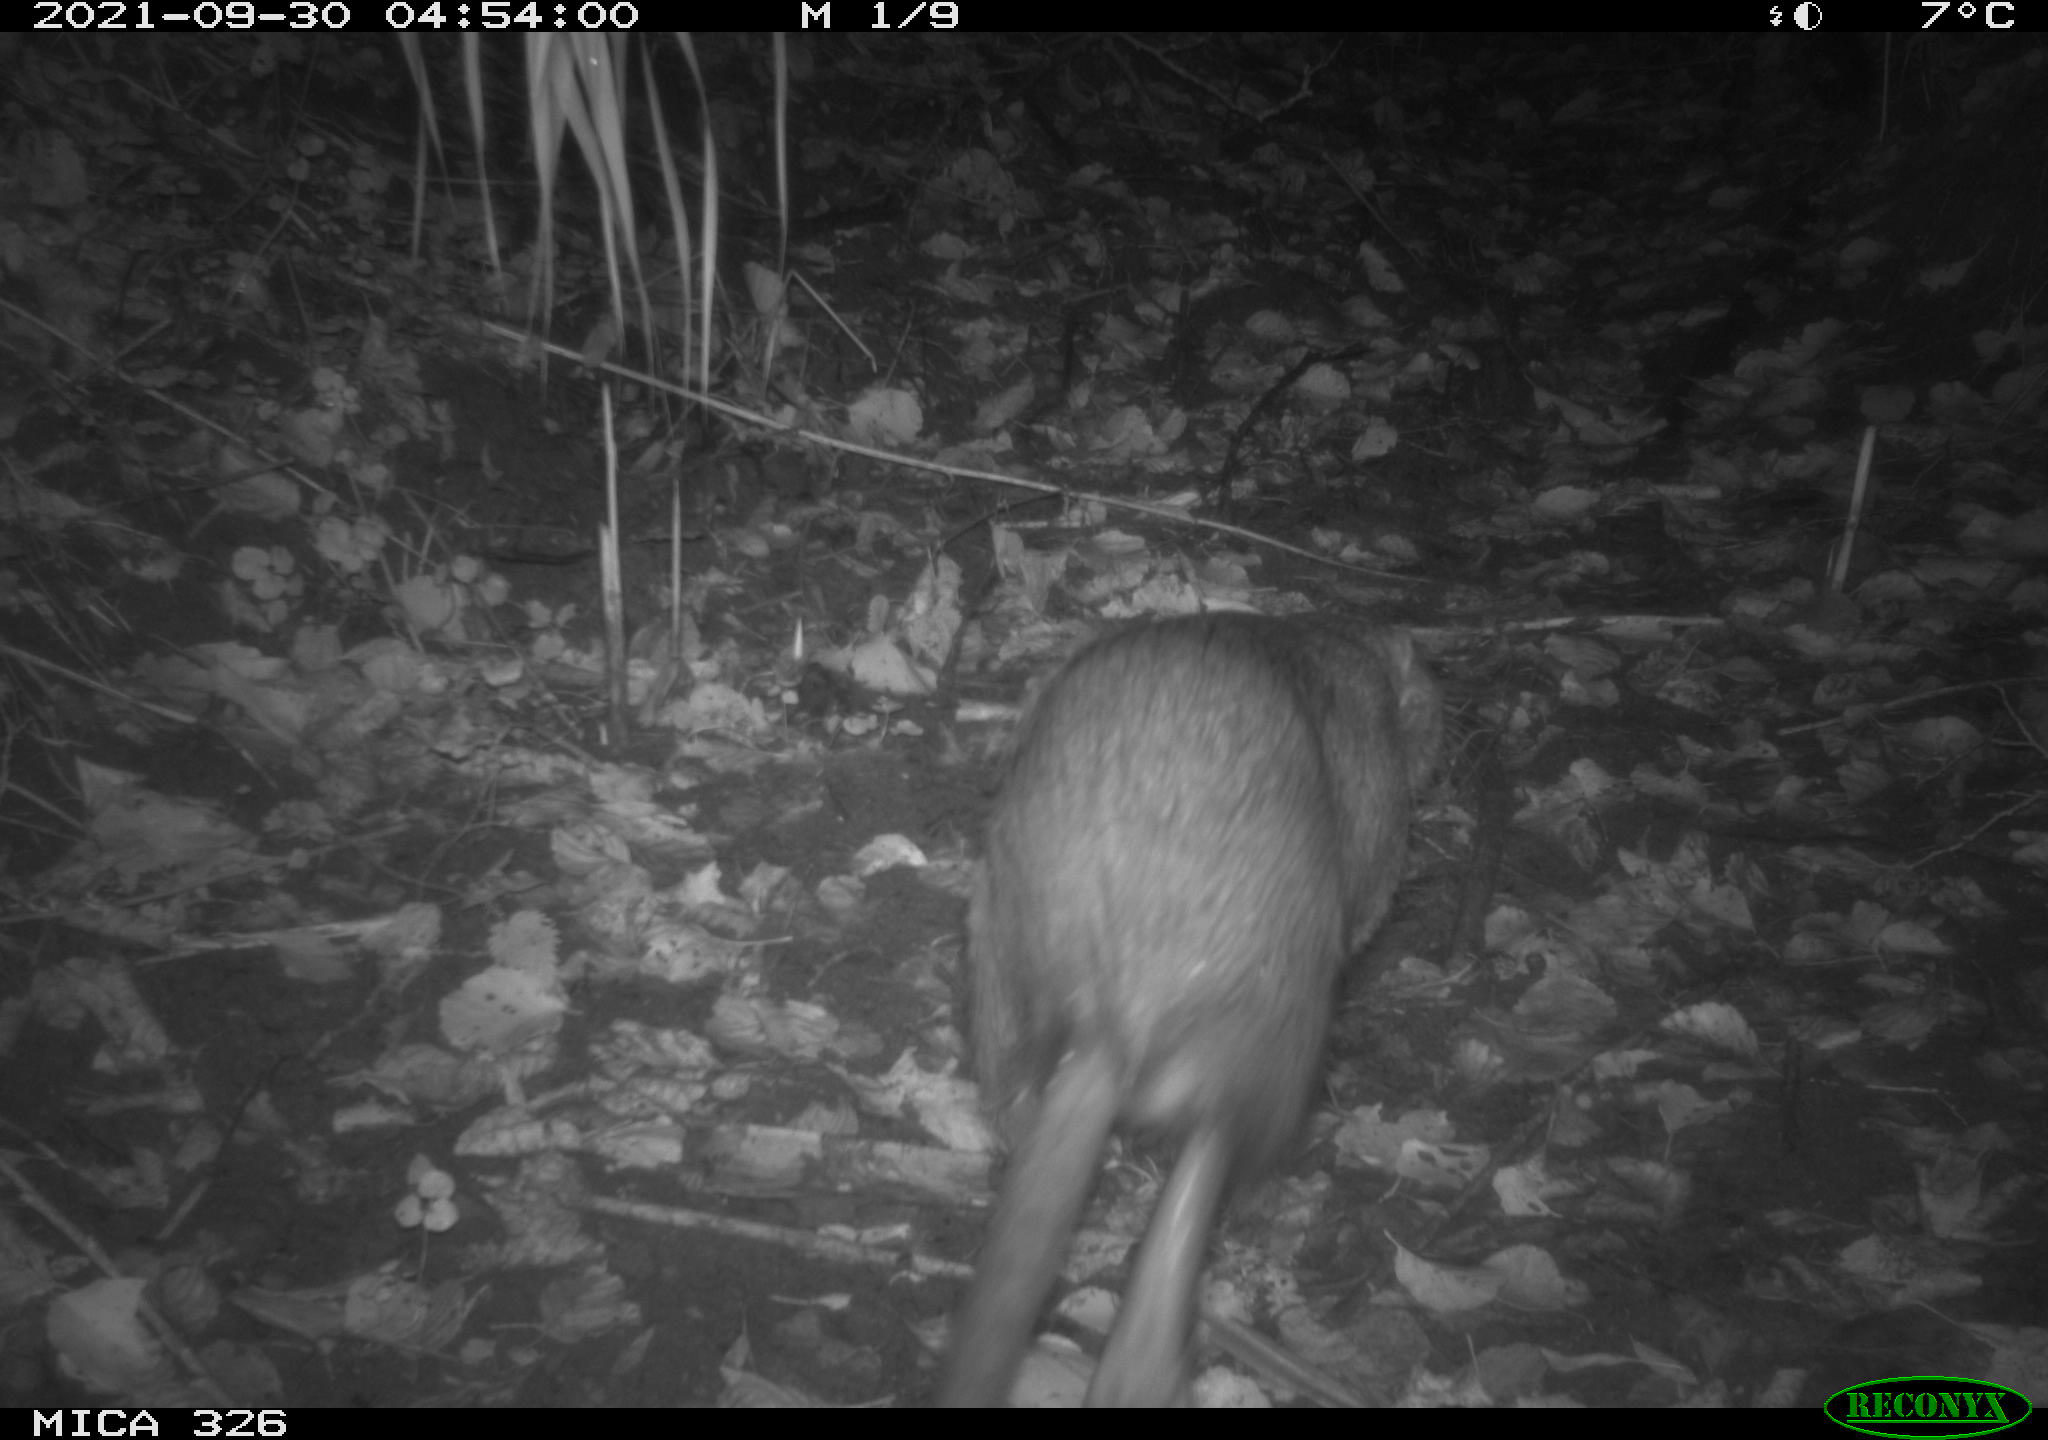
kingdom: Animalia
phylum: Chordata
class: Mammalia
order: Rodentia
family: Myocastoridae
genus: Myocastor
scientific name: Myocastor coypus
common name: Coypu
